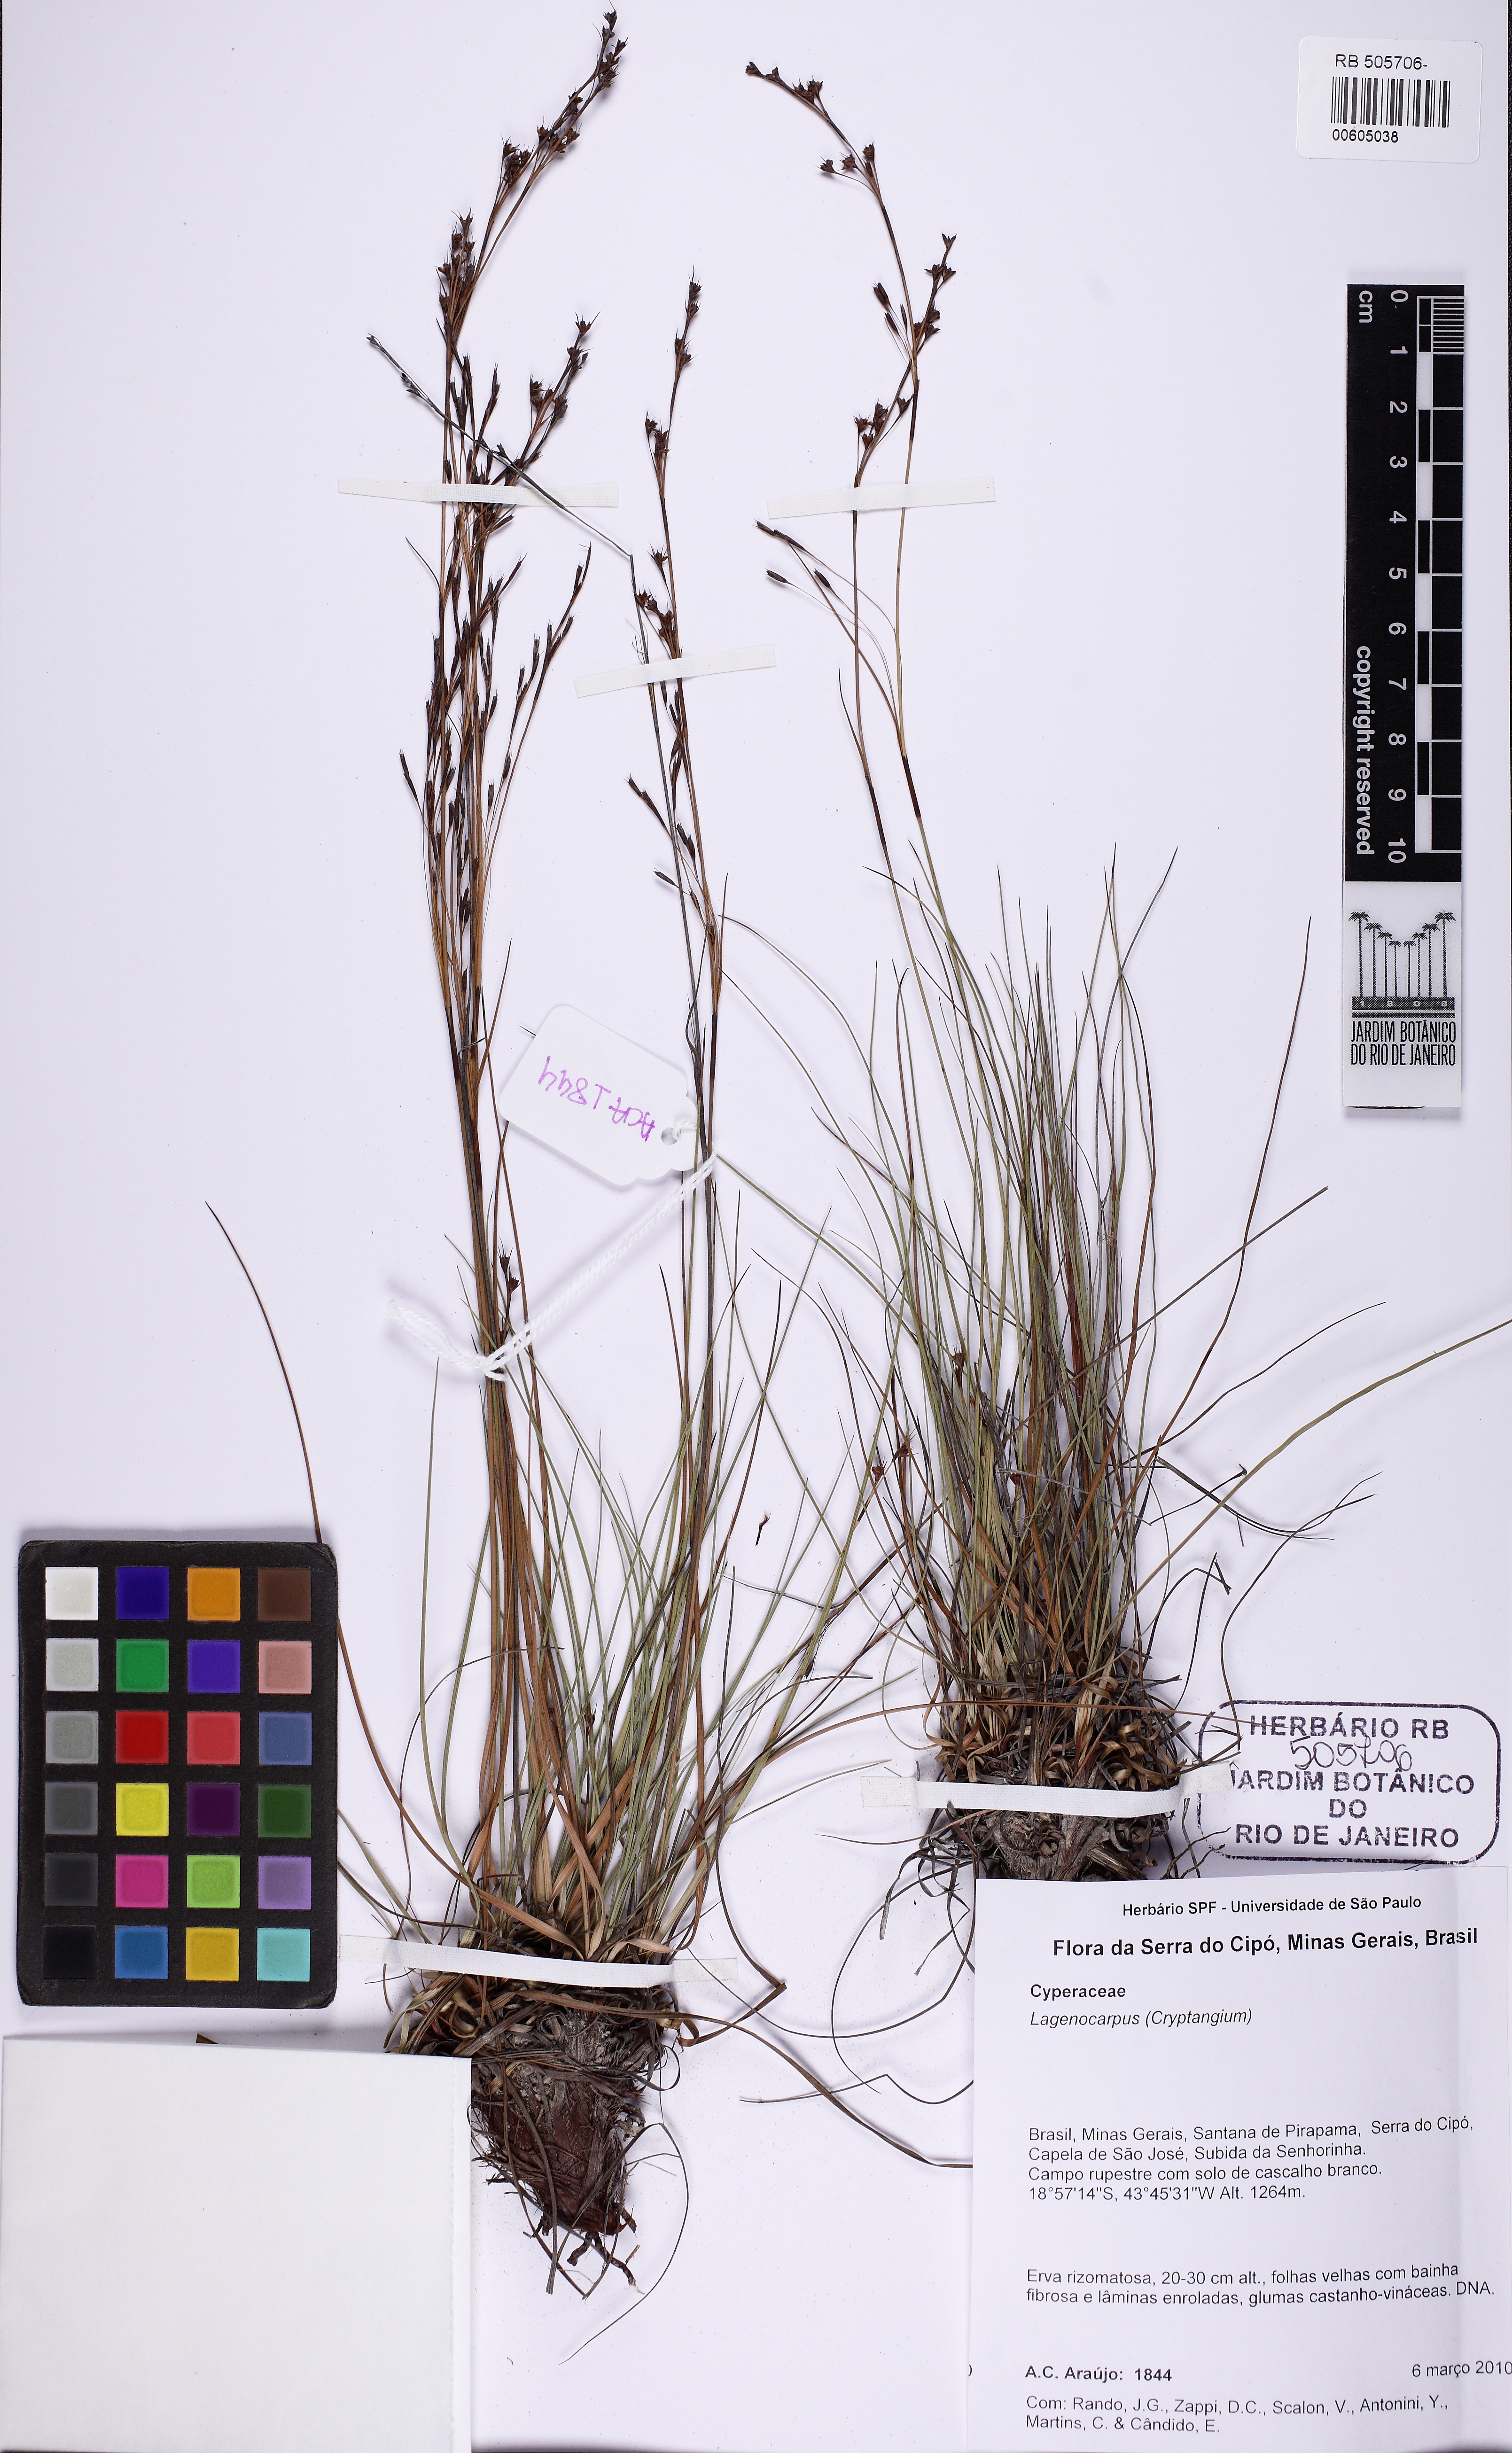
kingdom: Plantae
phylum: Tracheophyta
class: Liliopsida
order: Poales
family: Cyperaceae
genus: Lagenocarpus
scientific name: Lagenocarpus
